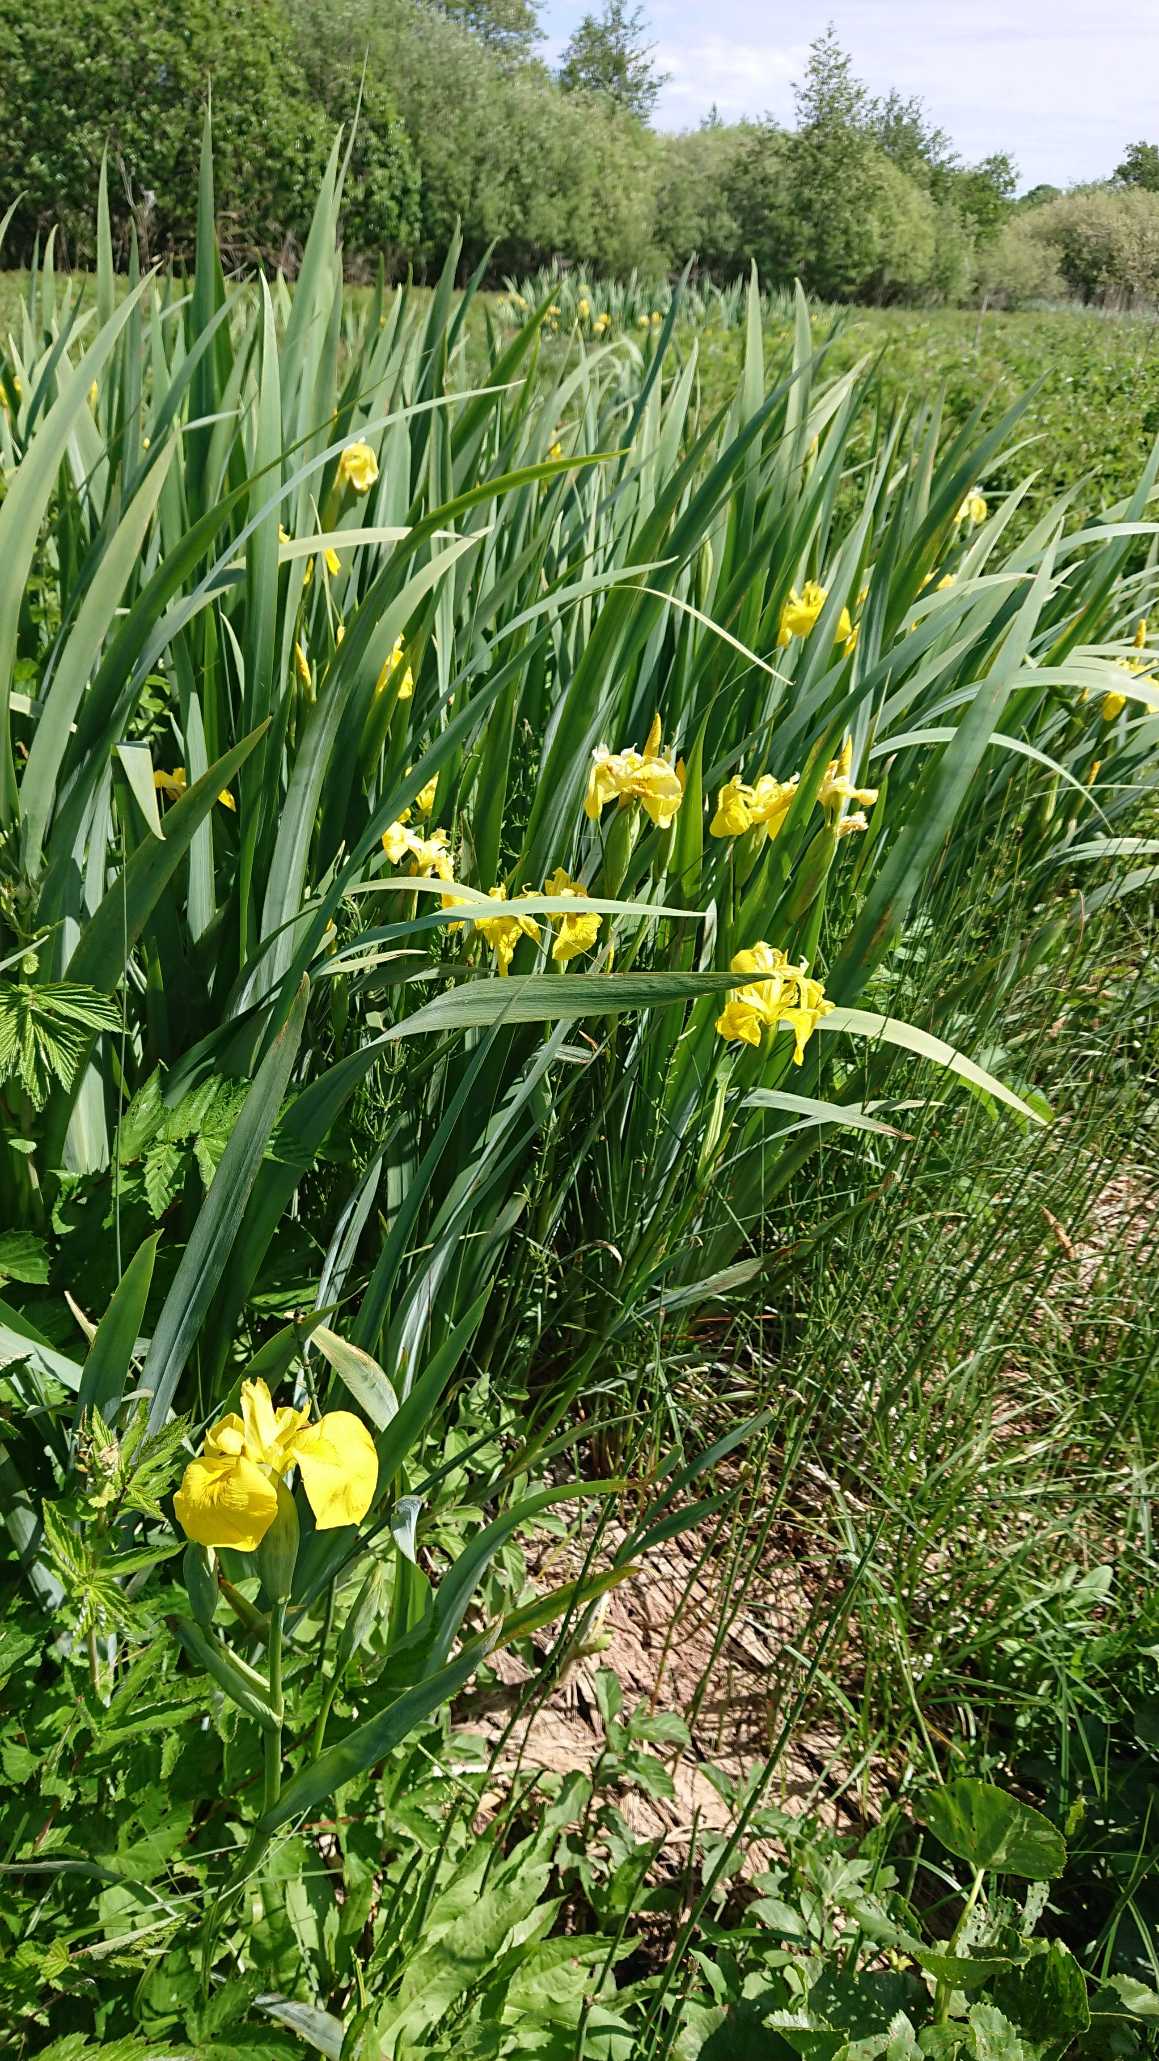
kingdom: Plantae
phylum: Tracheophyta
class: Liliopsida
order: Asparagales
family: Iridaceae
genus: Iris
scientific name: Iris pseudacorus
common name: Gul iris
